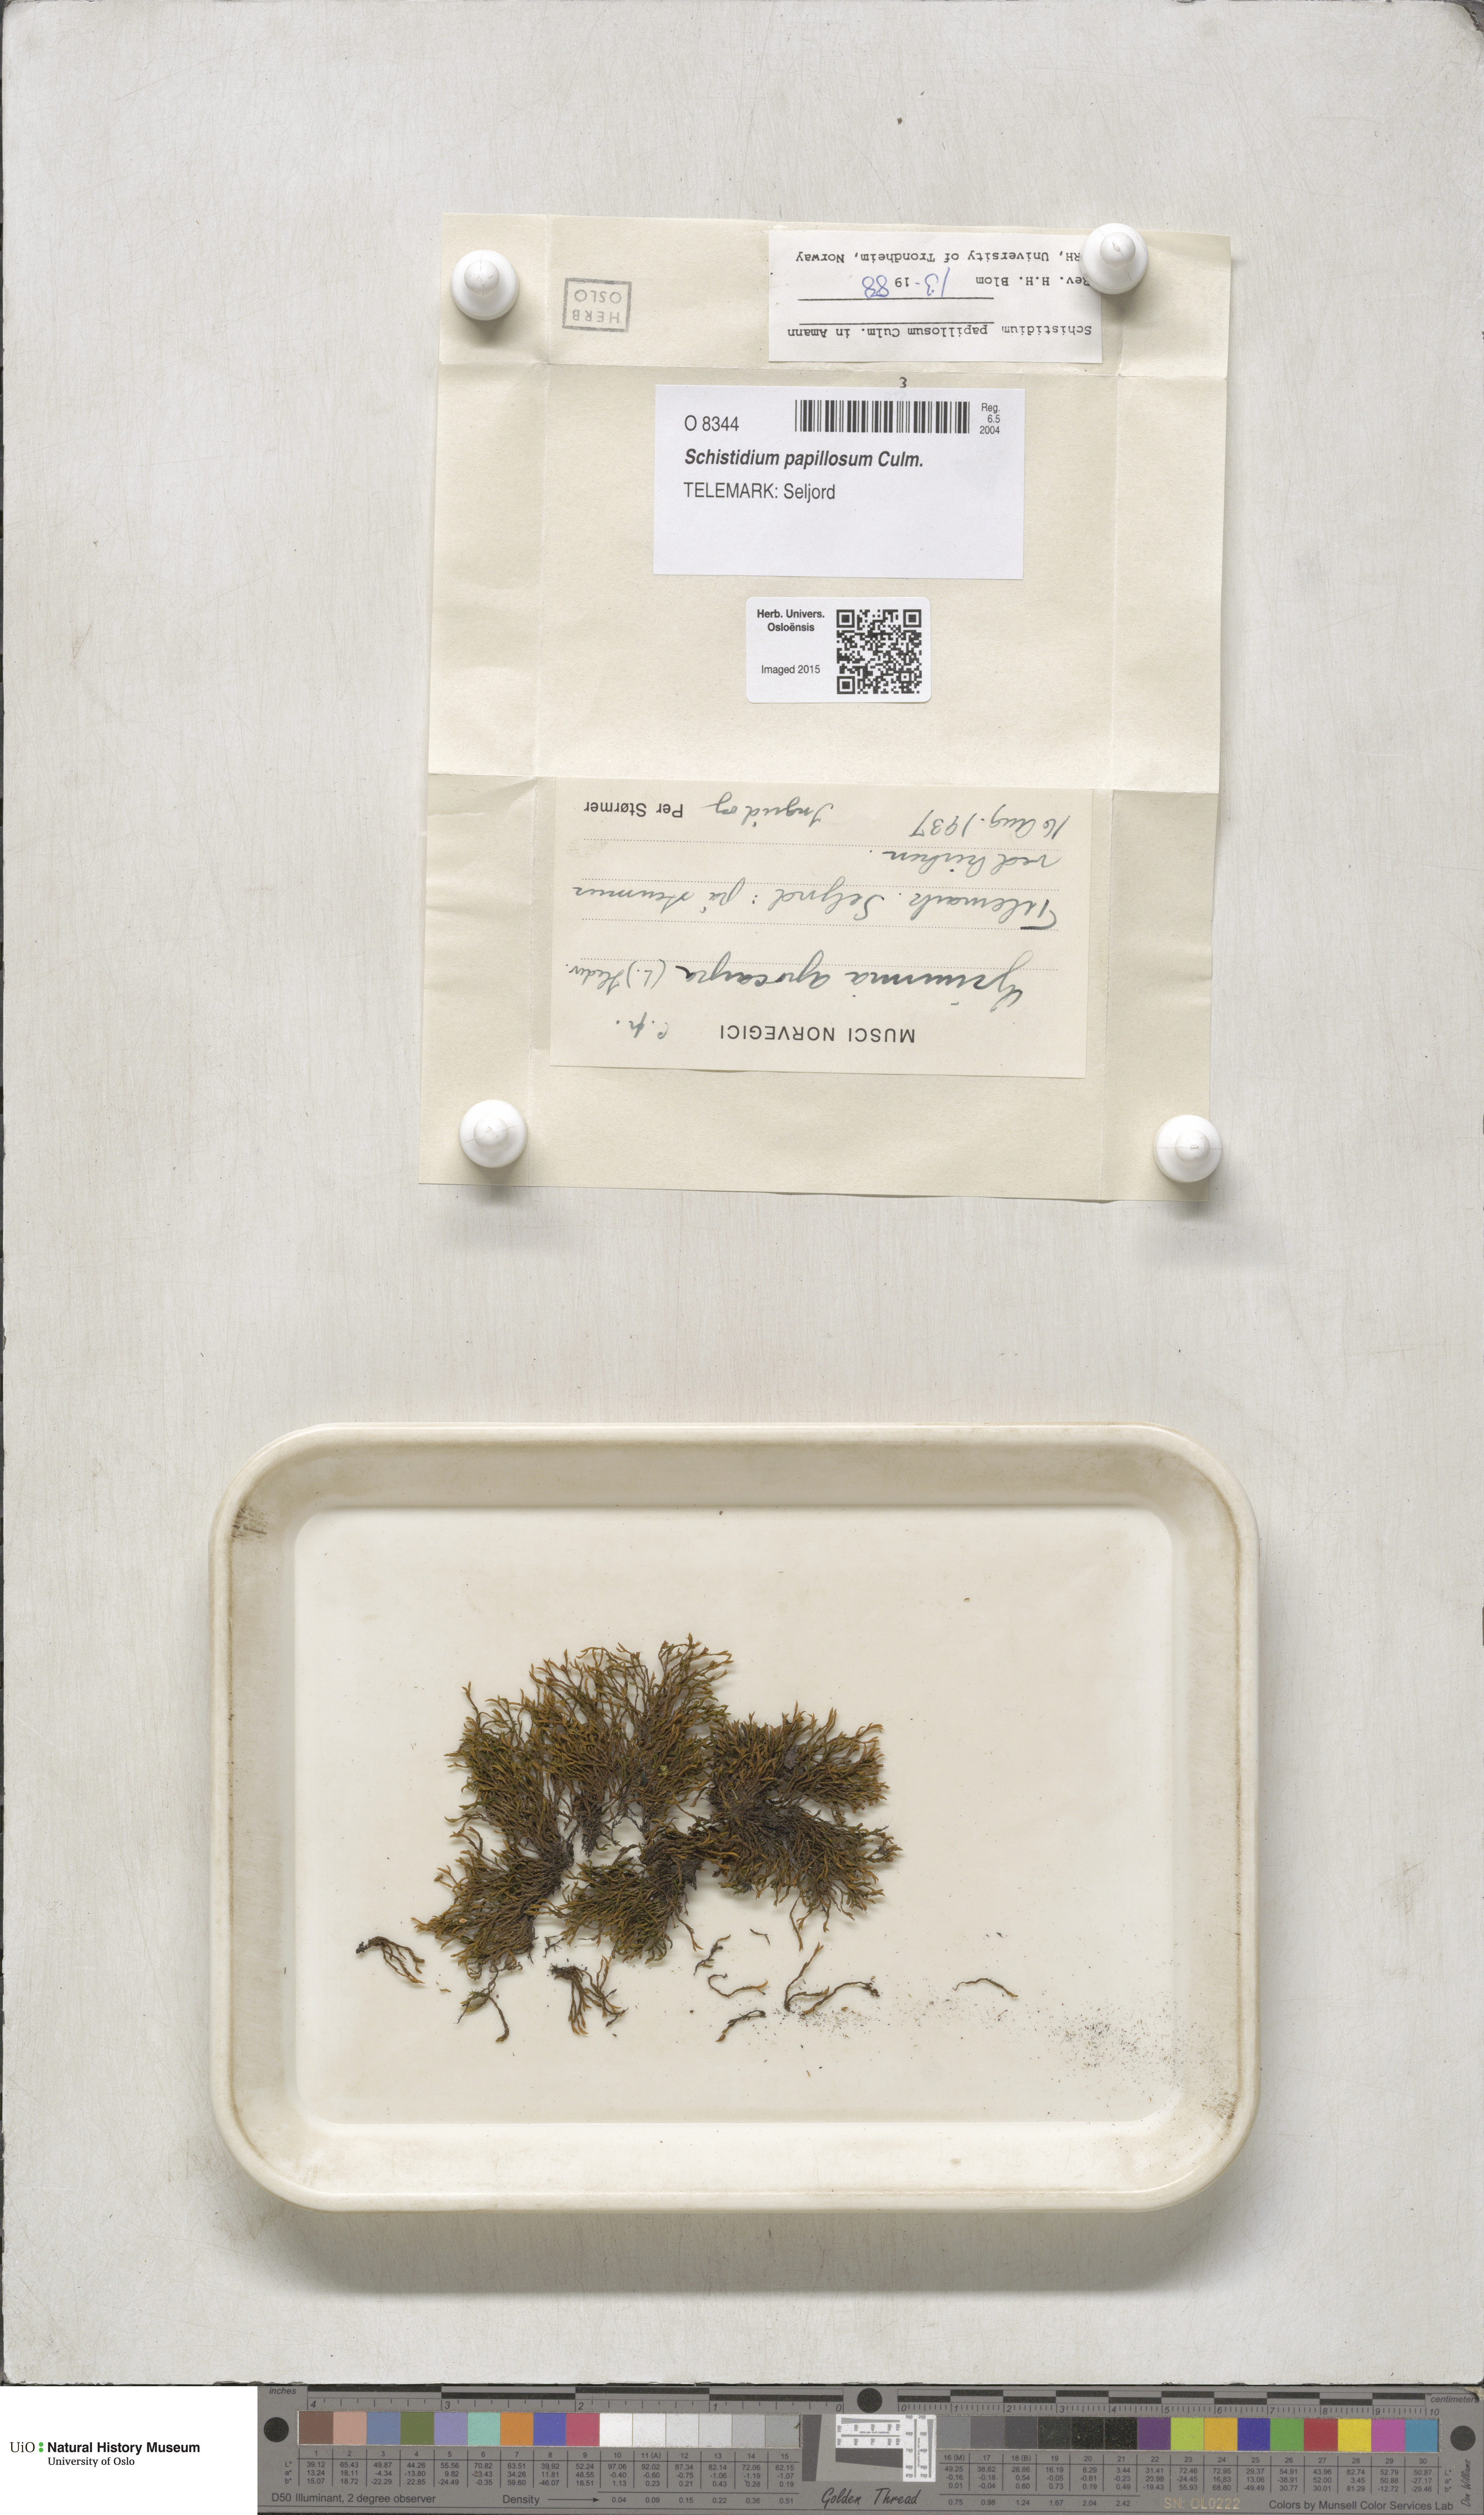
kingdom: Plantae
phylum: Bryophyta
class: Bryopsida
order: Grimmiales
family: Grimmiaceae
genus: Schistidium
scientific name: Schistidium papillosum
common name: Papillose bloom moss
